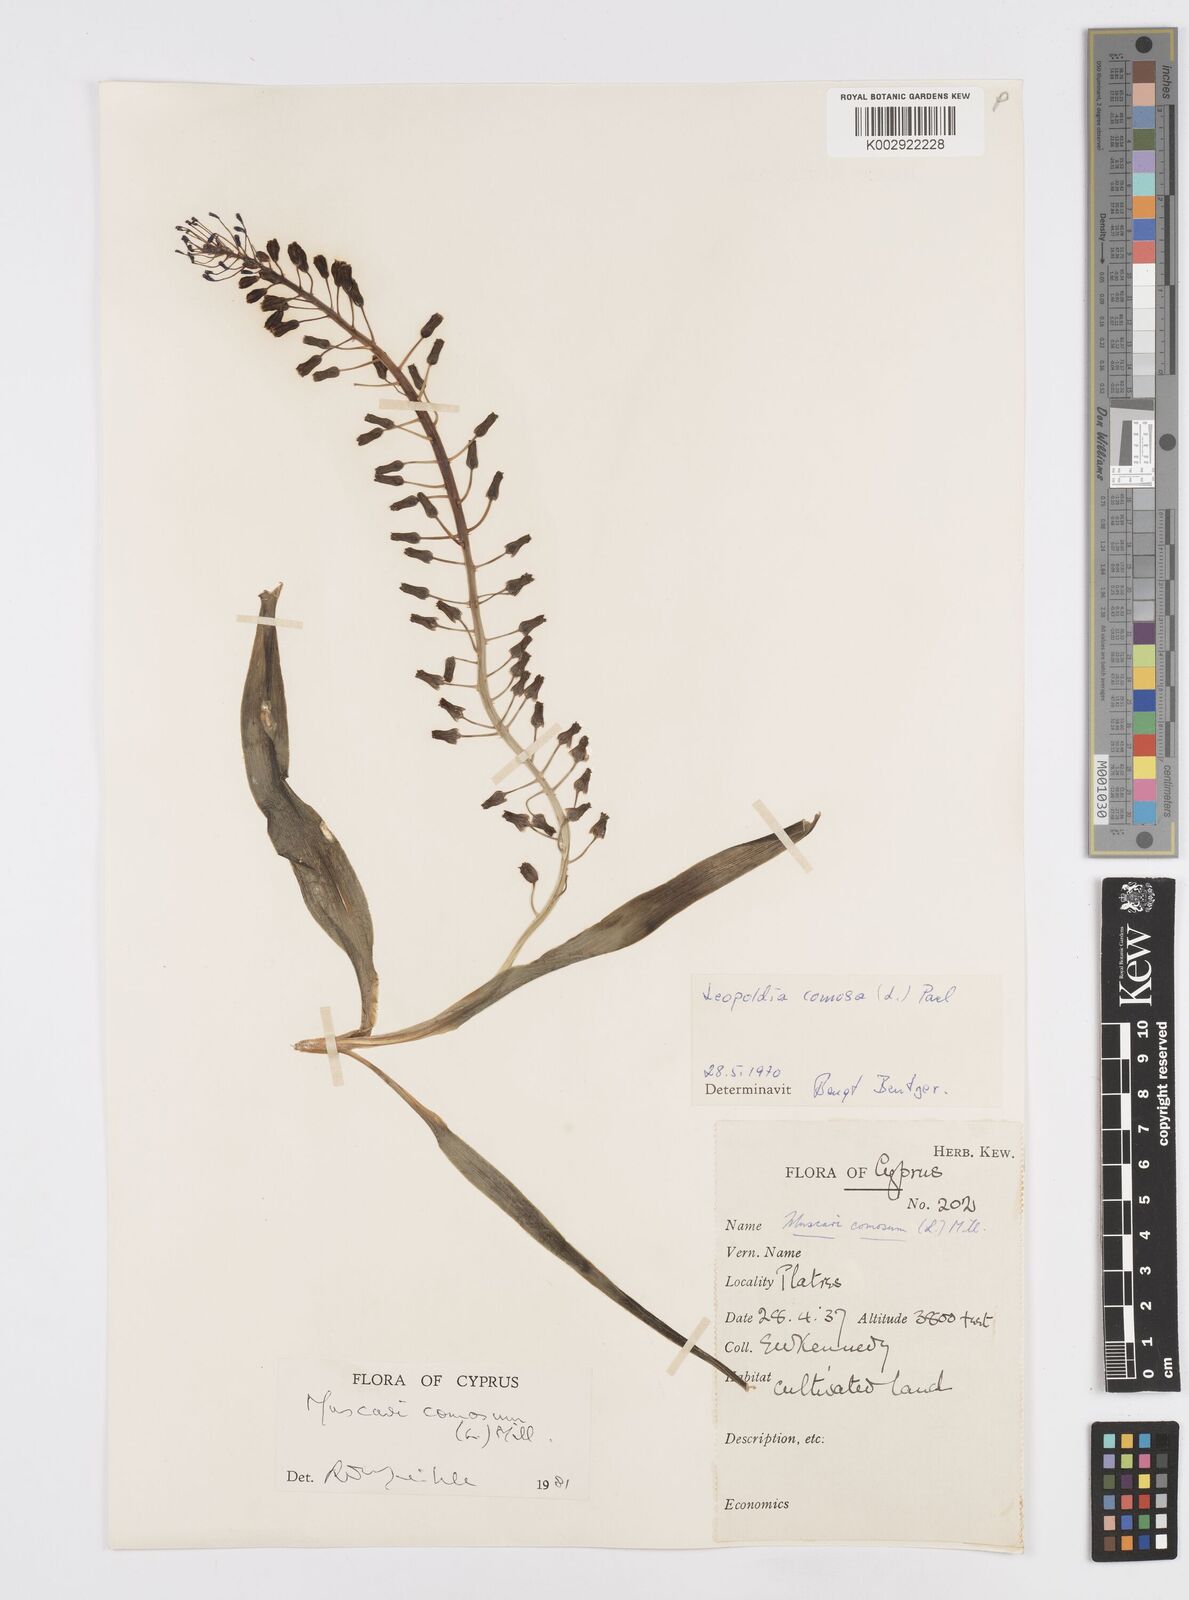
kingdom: Plantae
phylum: Tracheophyta
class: Liliopsida
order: Asparagales
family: Asparagaceae
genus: Muscari
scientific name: Muscari comosum
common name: Tassel hyacinth
